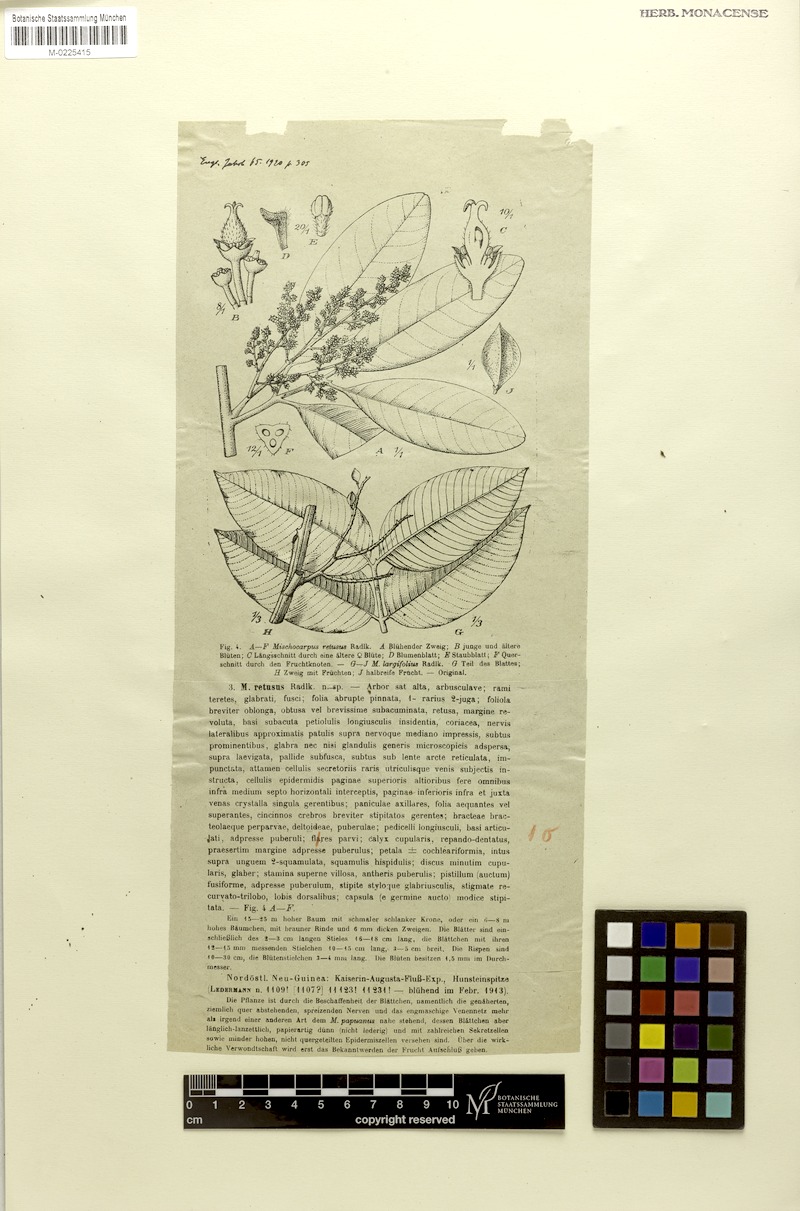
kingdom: Plantae
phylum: Tracheophyta
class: Magnoliopsida
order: Sapindales
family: Sapindaceae
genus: Mischocarpus
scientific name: Mischocarpus pyriformis
